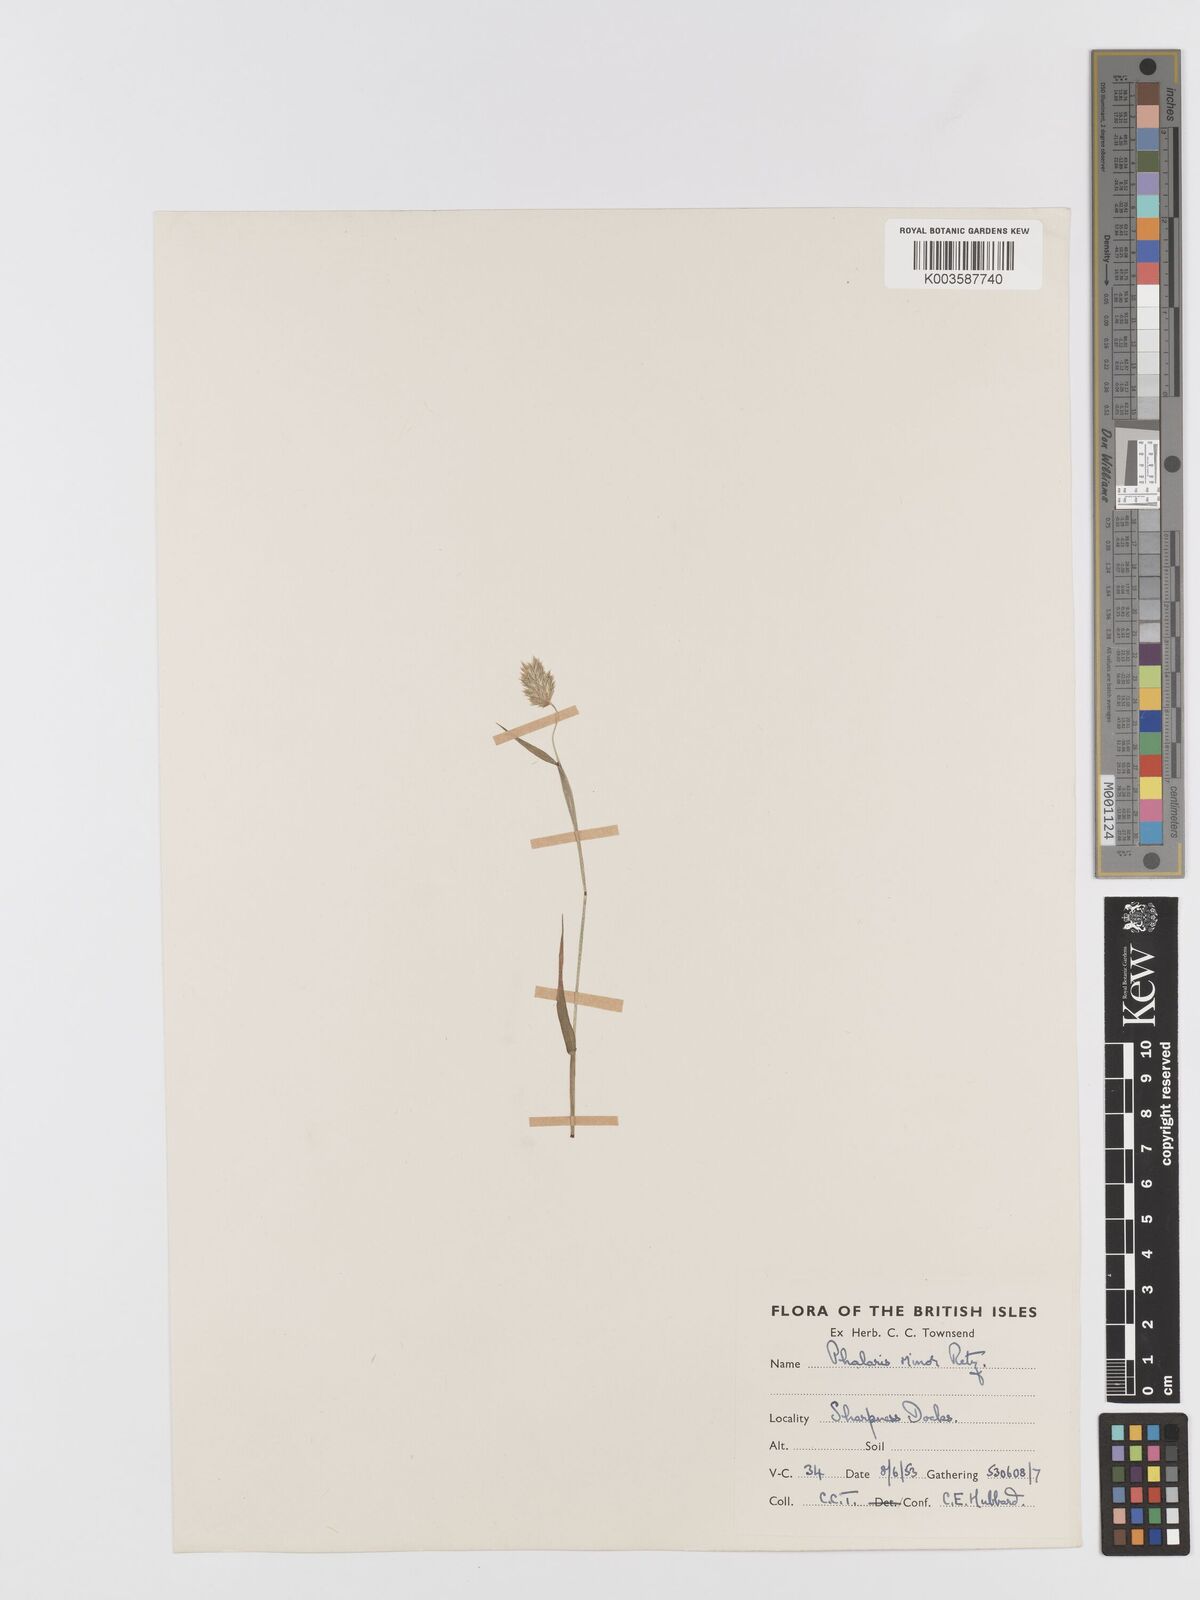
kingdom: Plantae
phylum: Tracheophyta
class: Liliopsida
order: Poales
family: Poaceae
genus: Phalaris
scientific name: Phalaris minor
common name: Littleseed canarygrass
